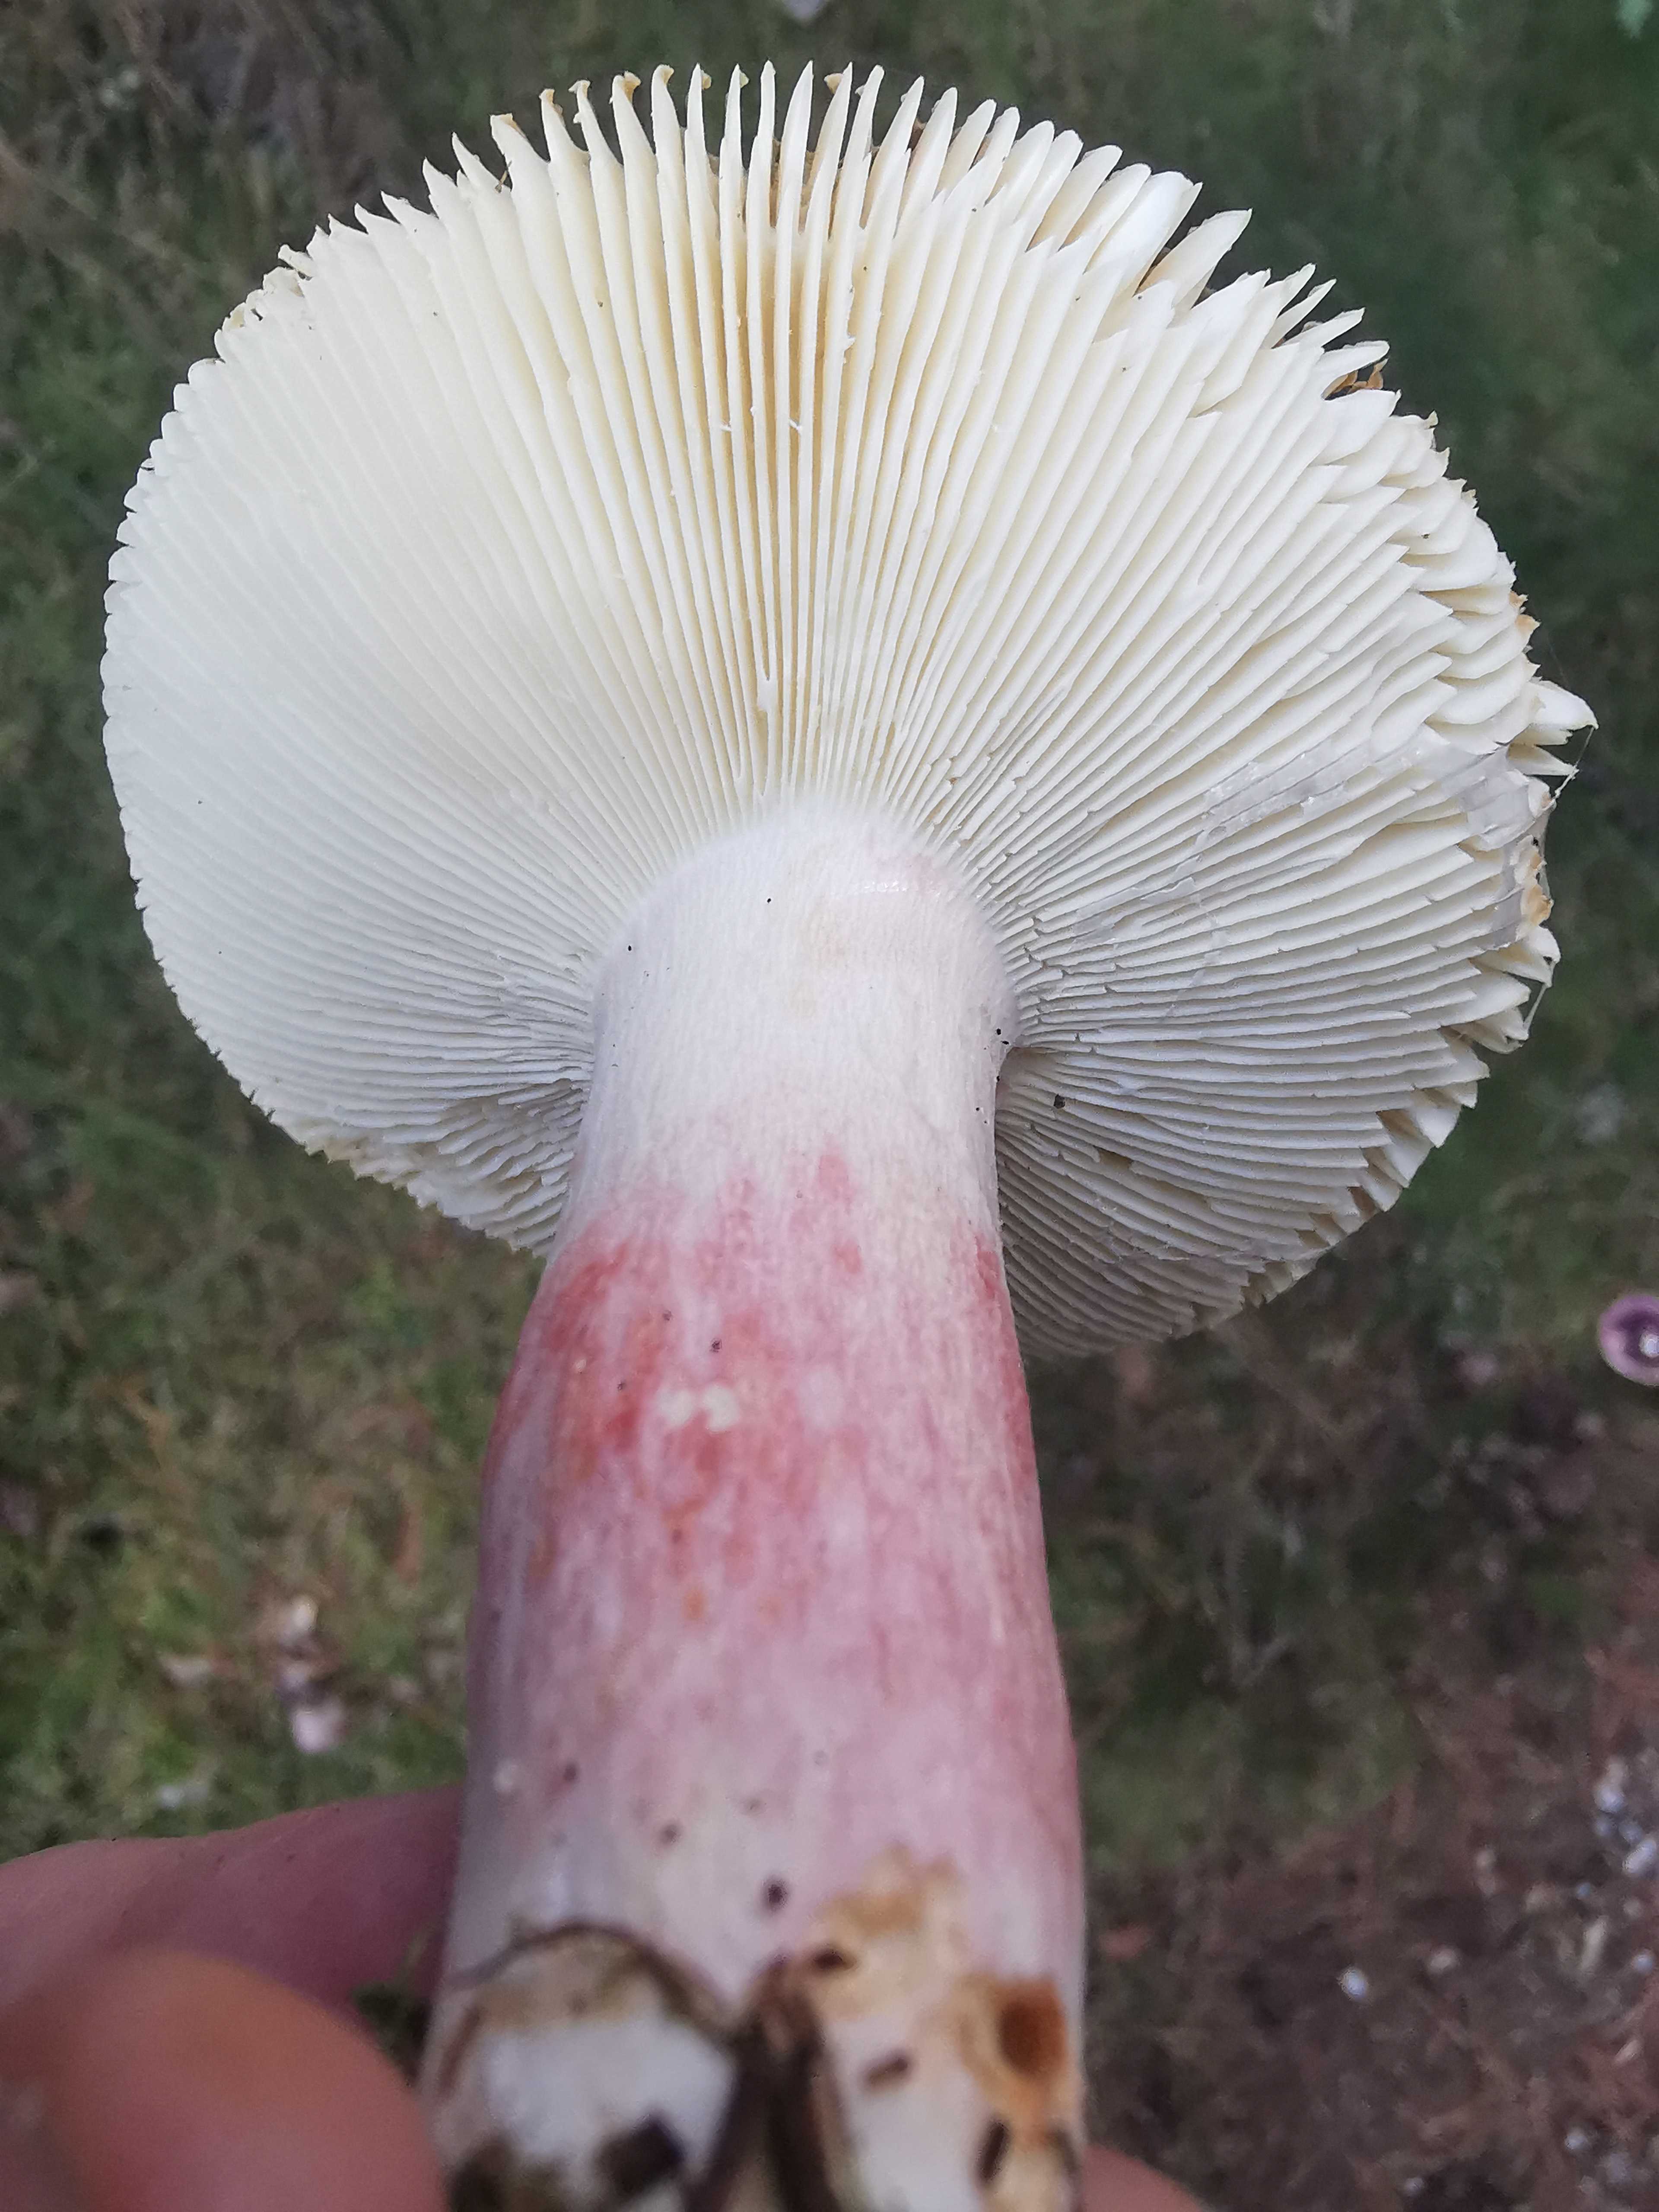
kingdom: Fungi
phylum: Basidiomycota
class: Agaricomycetes
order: Russulales
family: Russulaceae
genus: Russula
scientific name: Russula sardonia
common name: citronbladet skørhat
